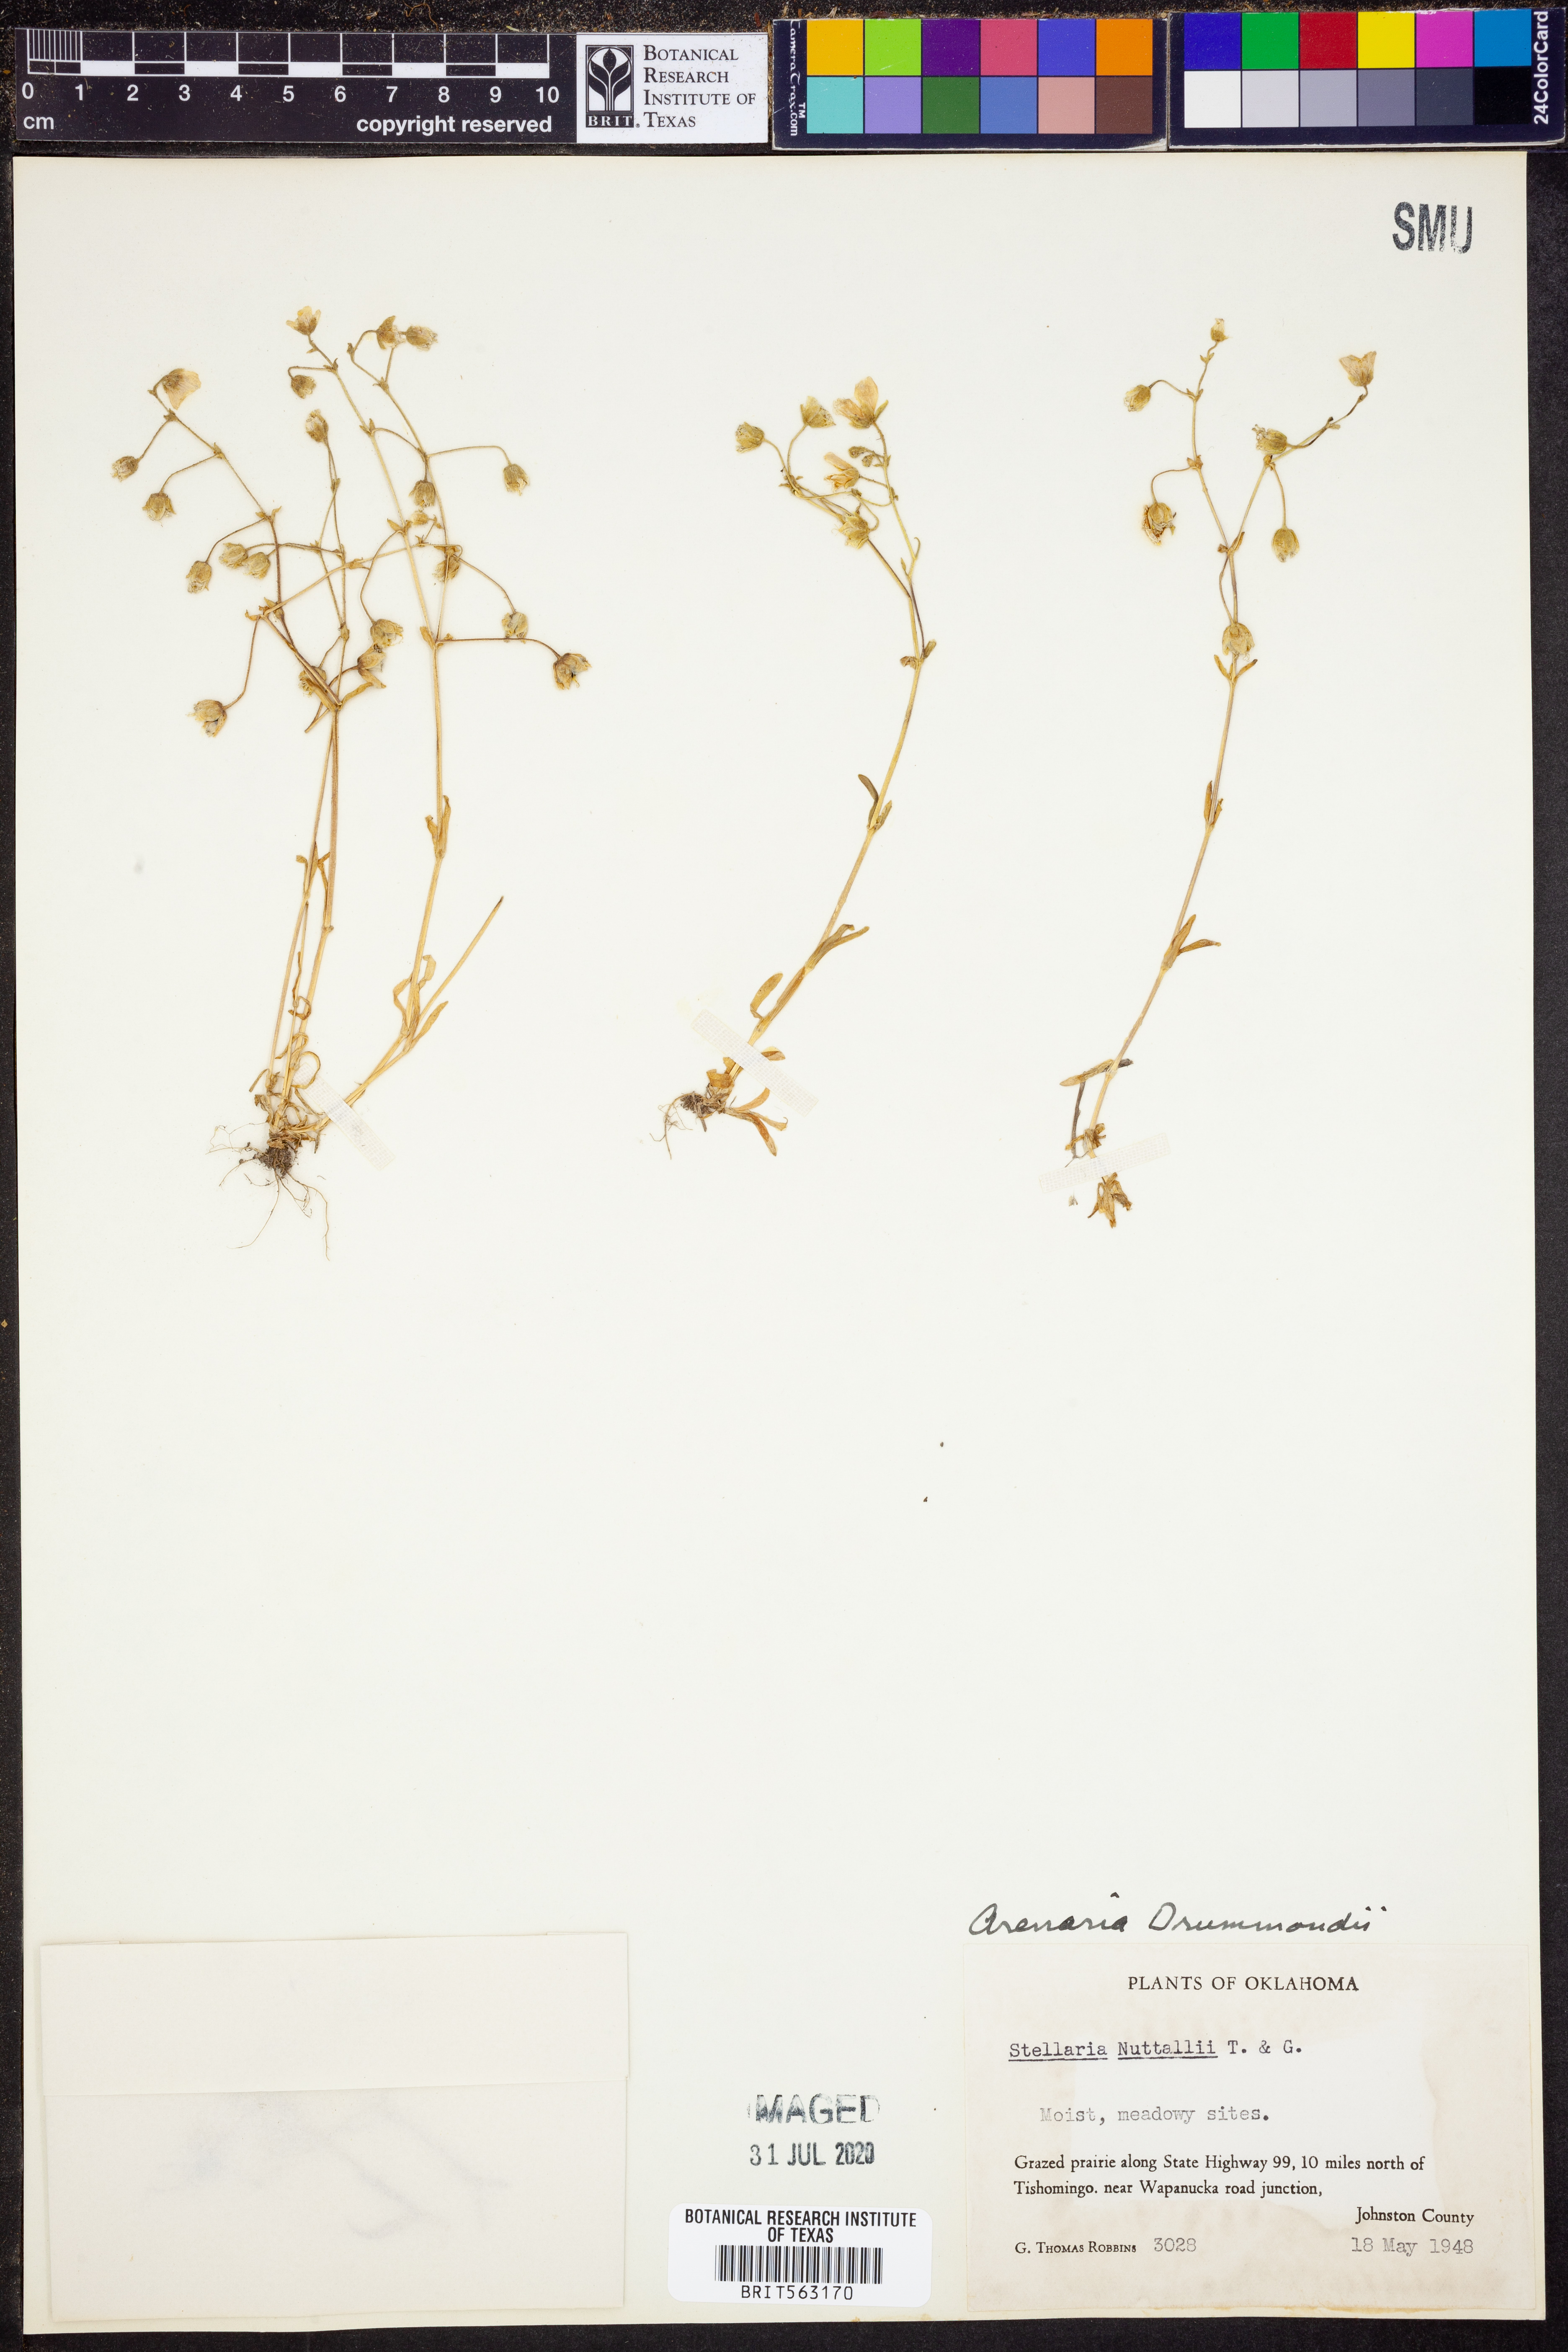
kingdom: Plantae
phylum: Tracheophyta
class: Magnoliopsida
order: Caryophyllales
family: Caryophyllaceae
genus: Geocarpon
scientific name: Geocarpon nuttallii
